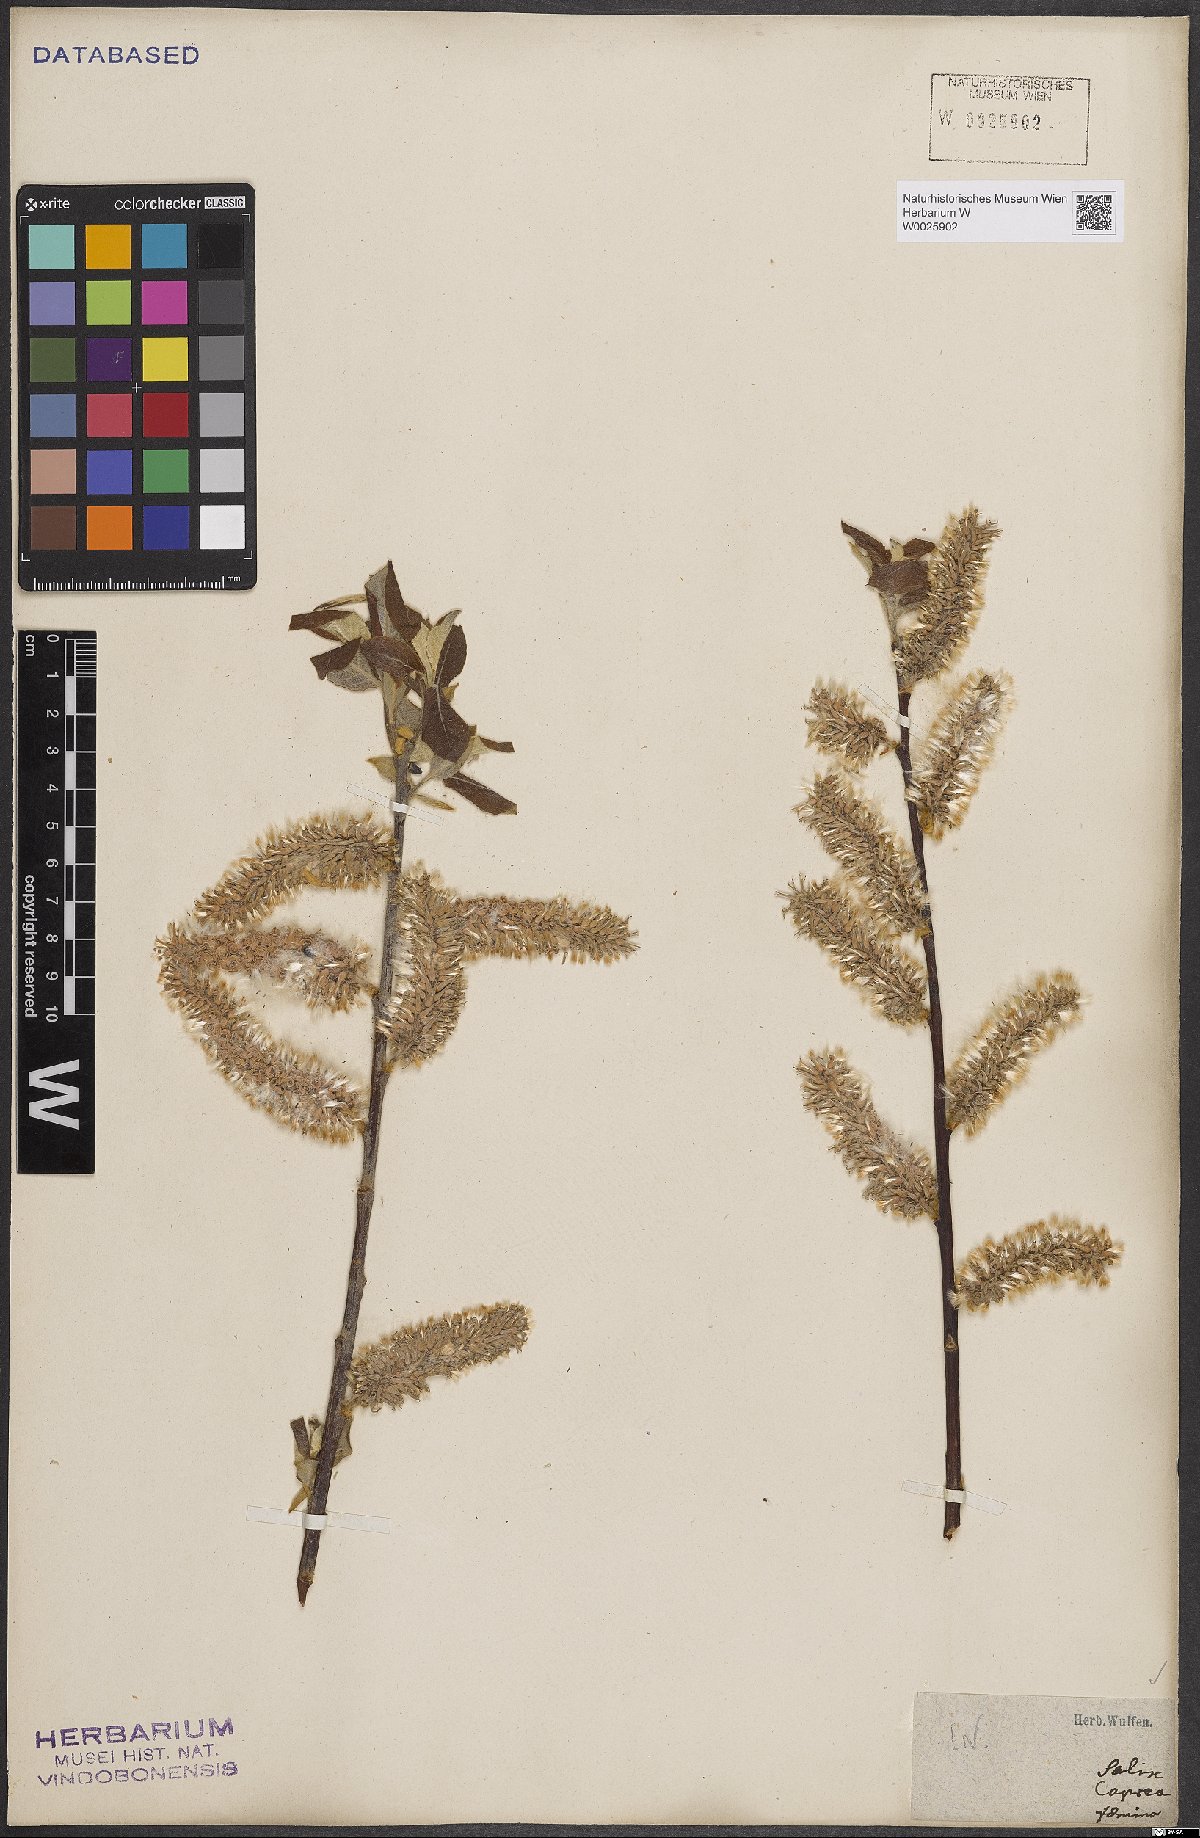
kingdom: Plantae
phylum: Tracheophyta
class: Magnoliopsida
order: Malpighiales
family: Salicaceae
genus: Salix
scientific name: Salix caprea
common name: Goat willow
